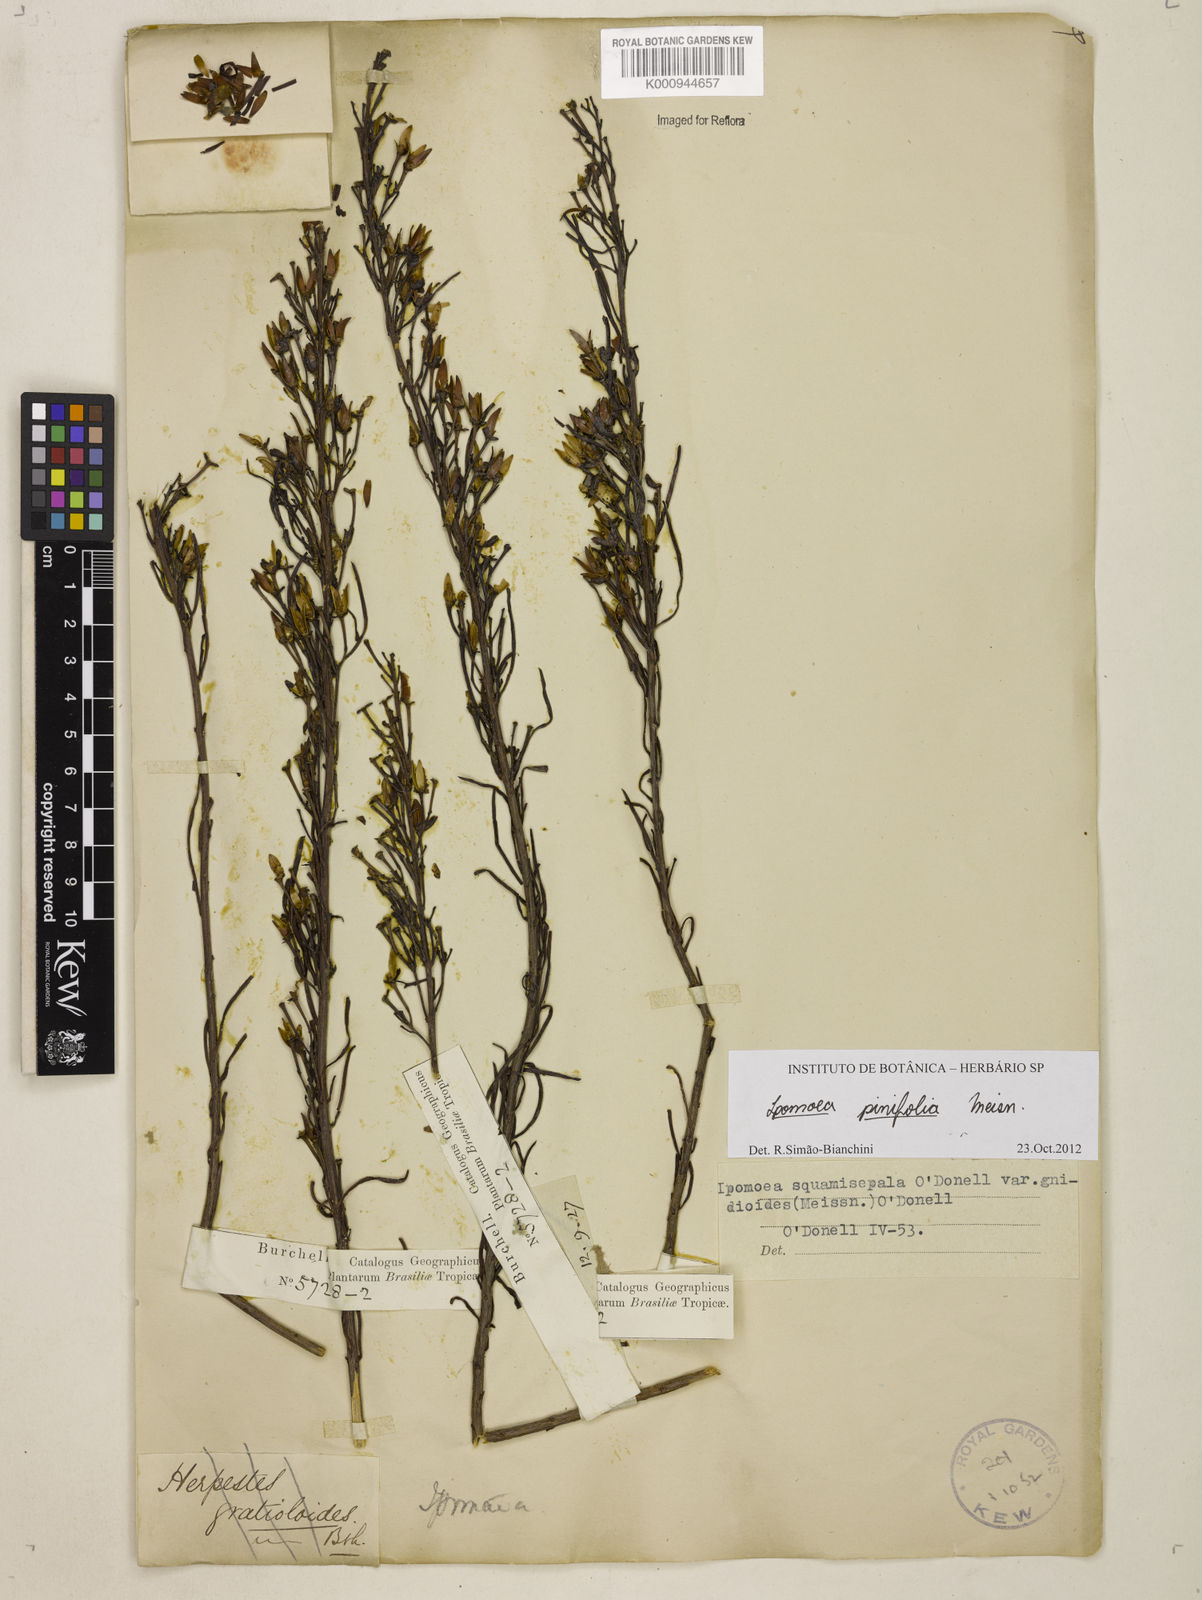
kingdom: Plantae
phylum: Tracheophyta
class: Magnoliopsida
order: Solanales
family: Convolvulaceae
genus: Ipomoea
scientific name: Ipomoea pinifolia
